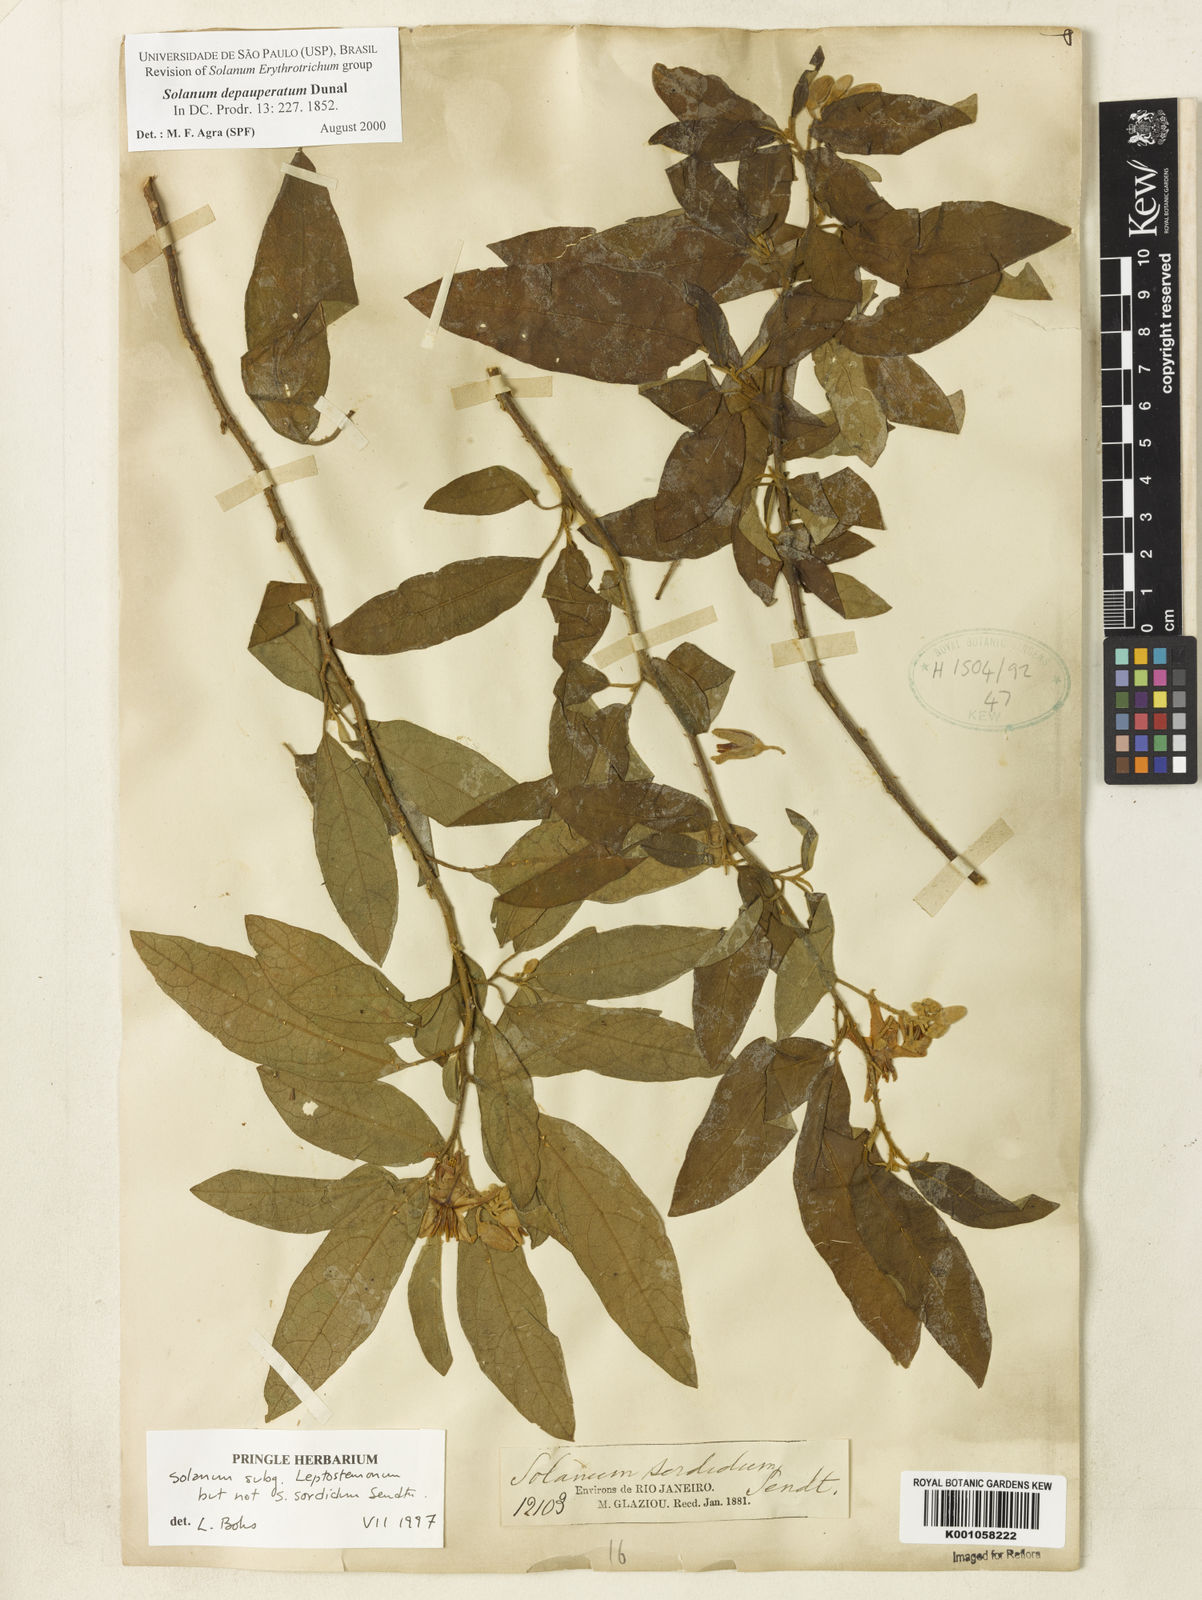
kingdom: Plantae
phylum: Tracheophyta
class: Magnoliopsida
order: Solanales
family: Solanaceae
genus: Solanum
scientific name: Solanum depauperatum
